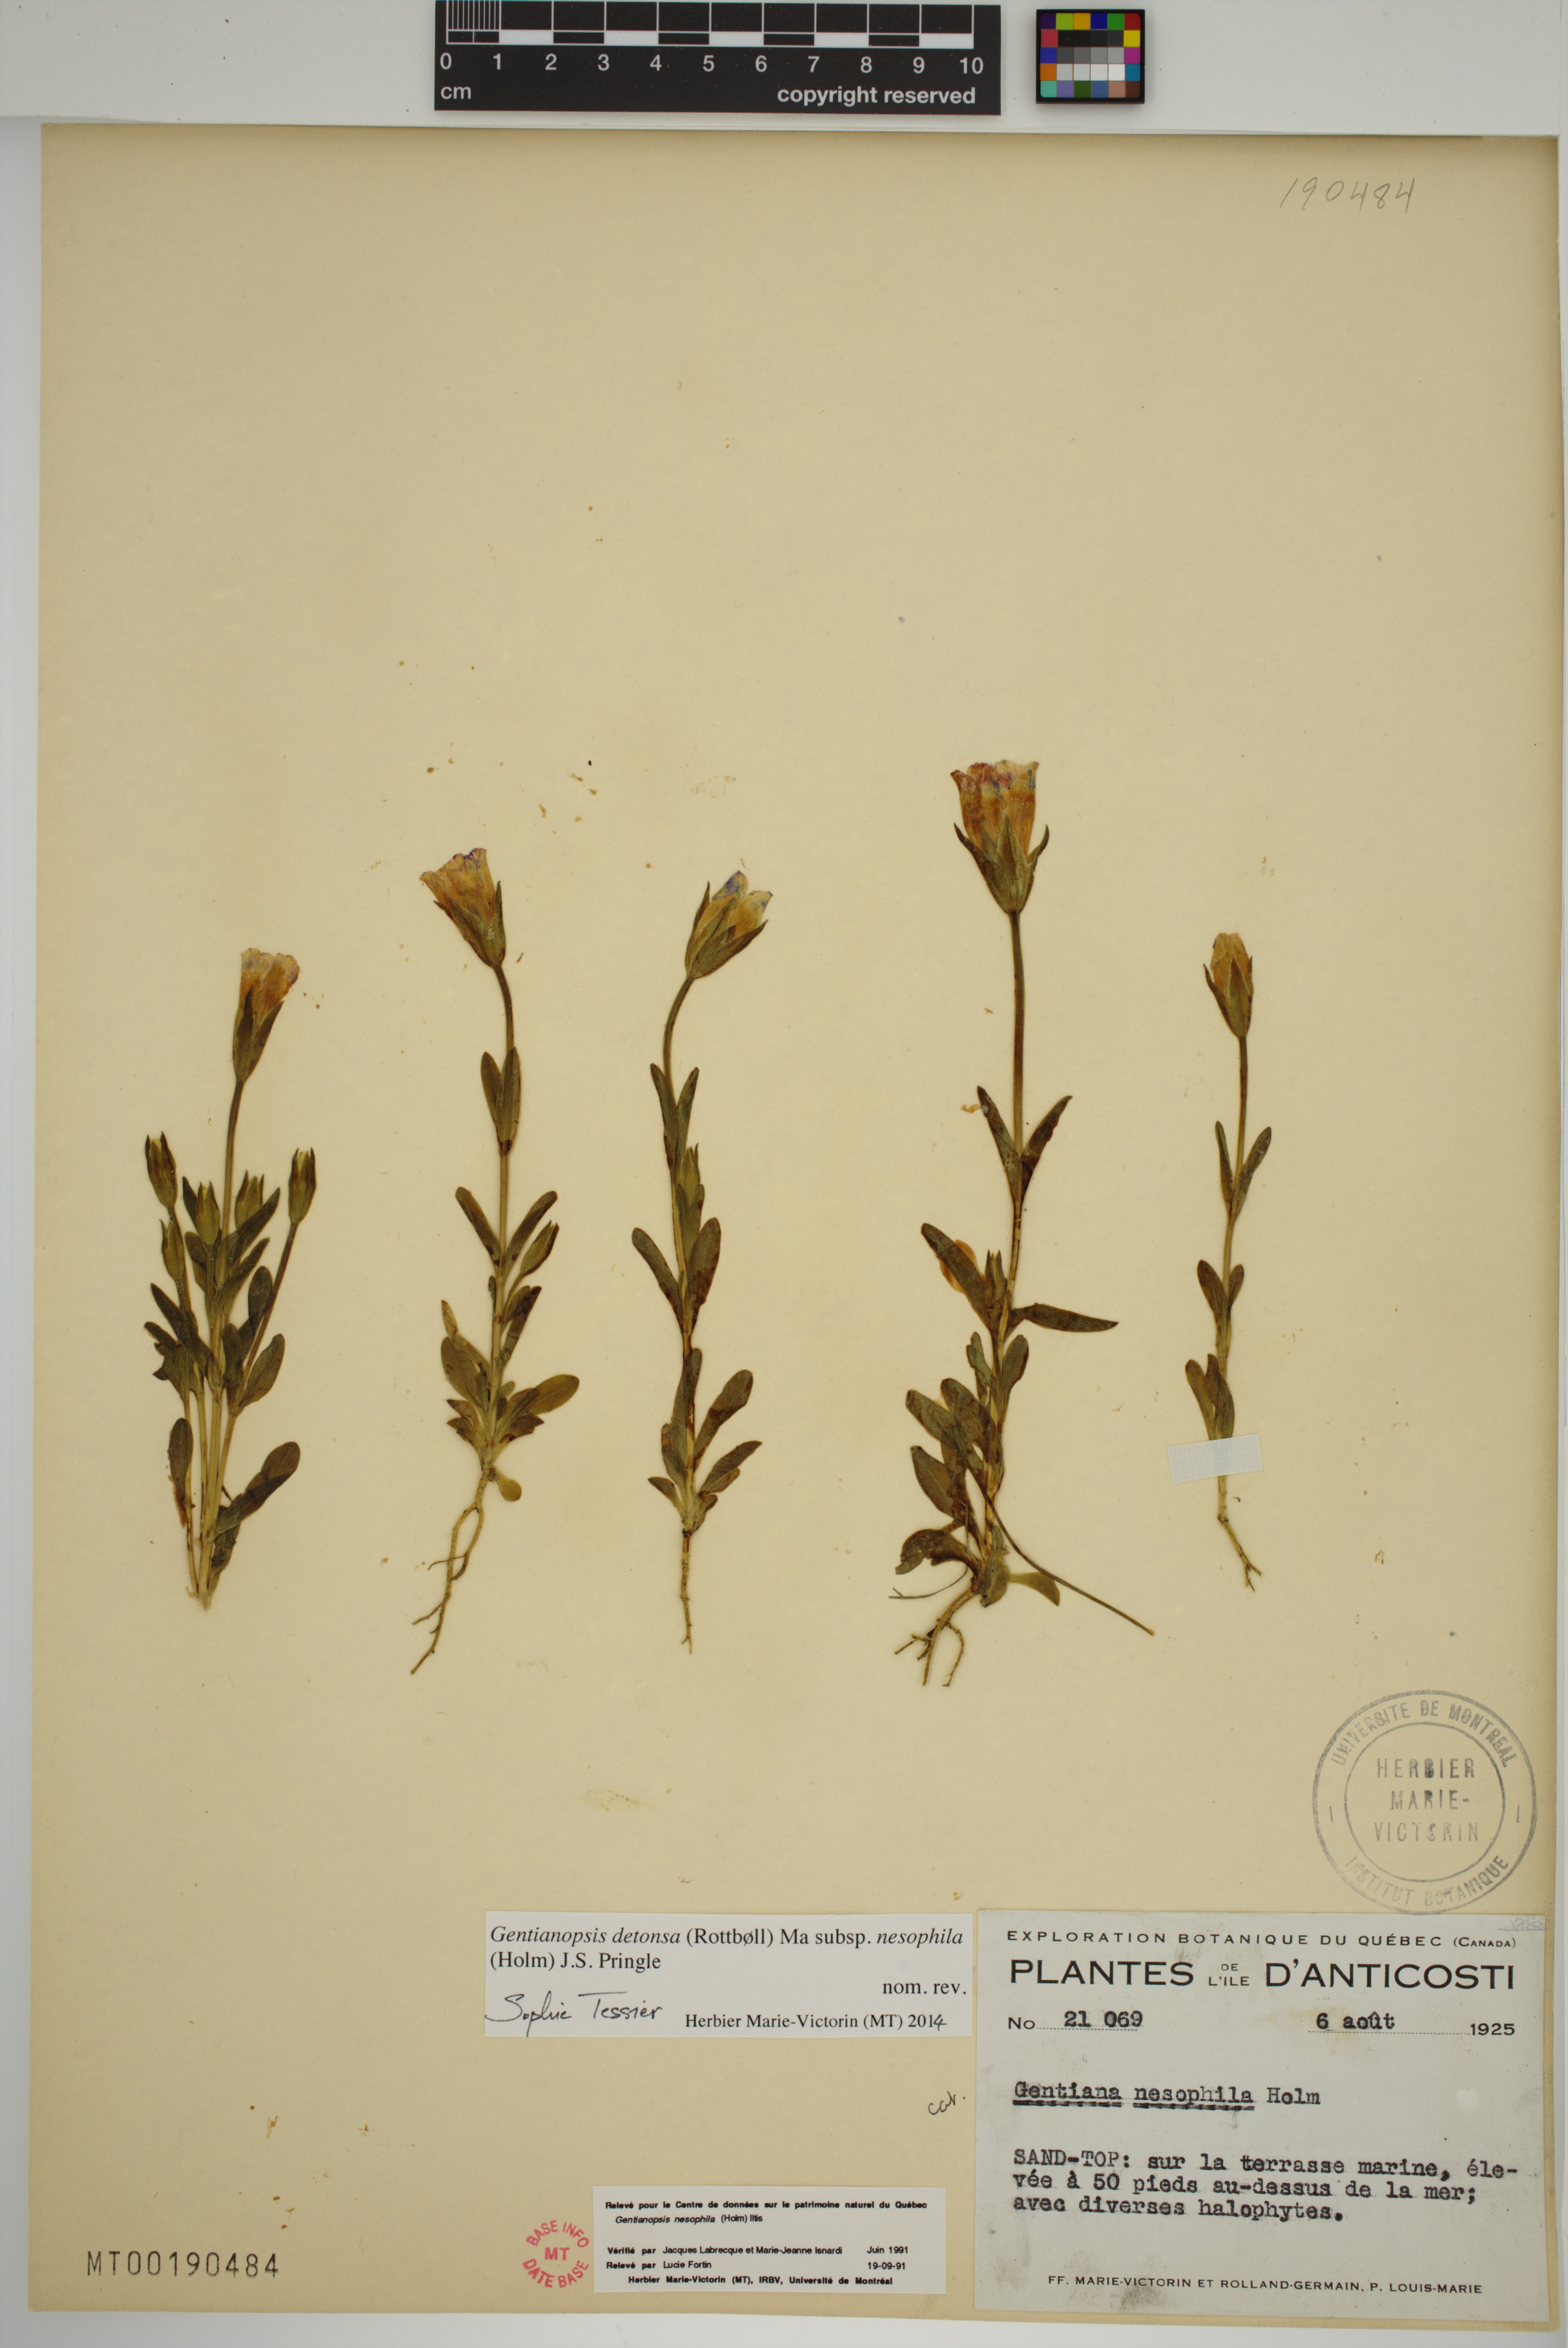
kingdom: Plantae
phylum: Tracheophyta
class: Magnoliopsida
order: Gentianales
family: Gentianaceae
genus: Gentianopsis
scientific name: Gentianopsis nesophila
